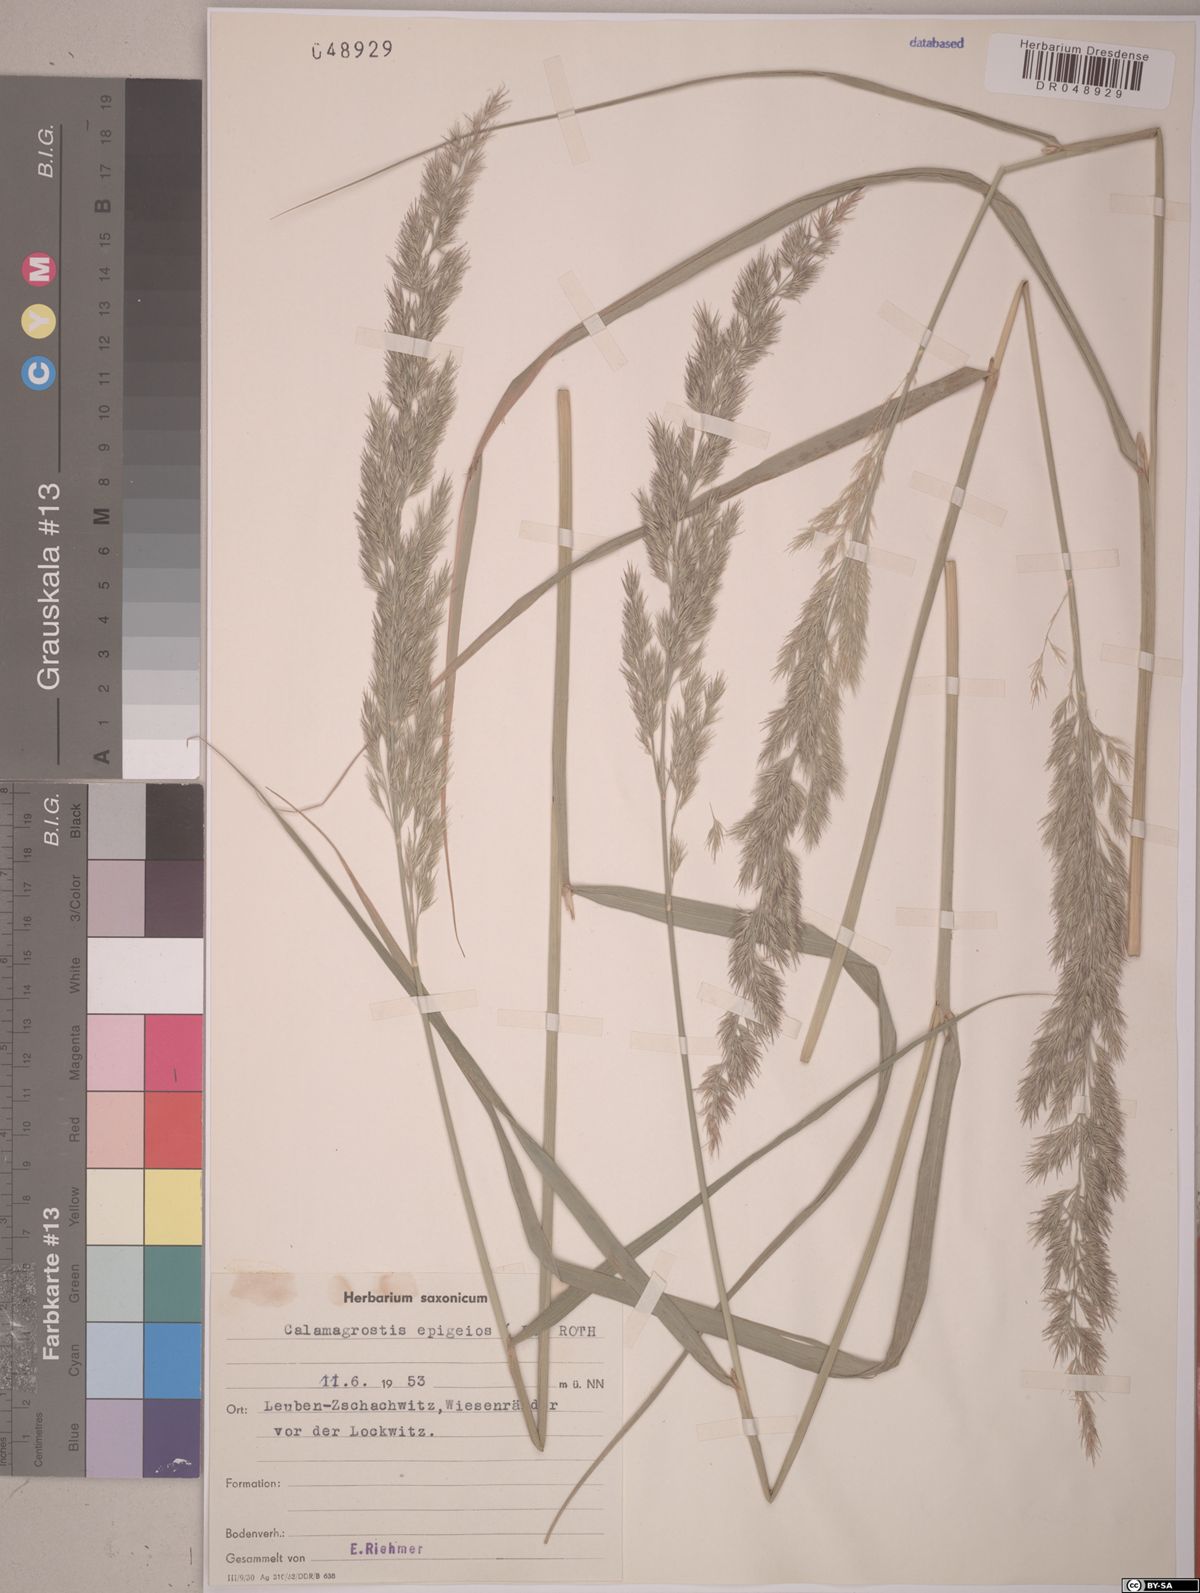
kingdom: Plantae
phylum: Tracheophyta
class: Liliopsida
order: Poales
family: Poaceae
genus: Calamagrostis
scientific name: Calamagrostis epigejos
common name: Wood small-reed
